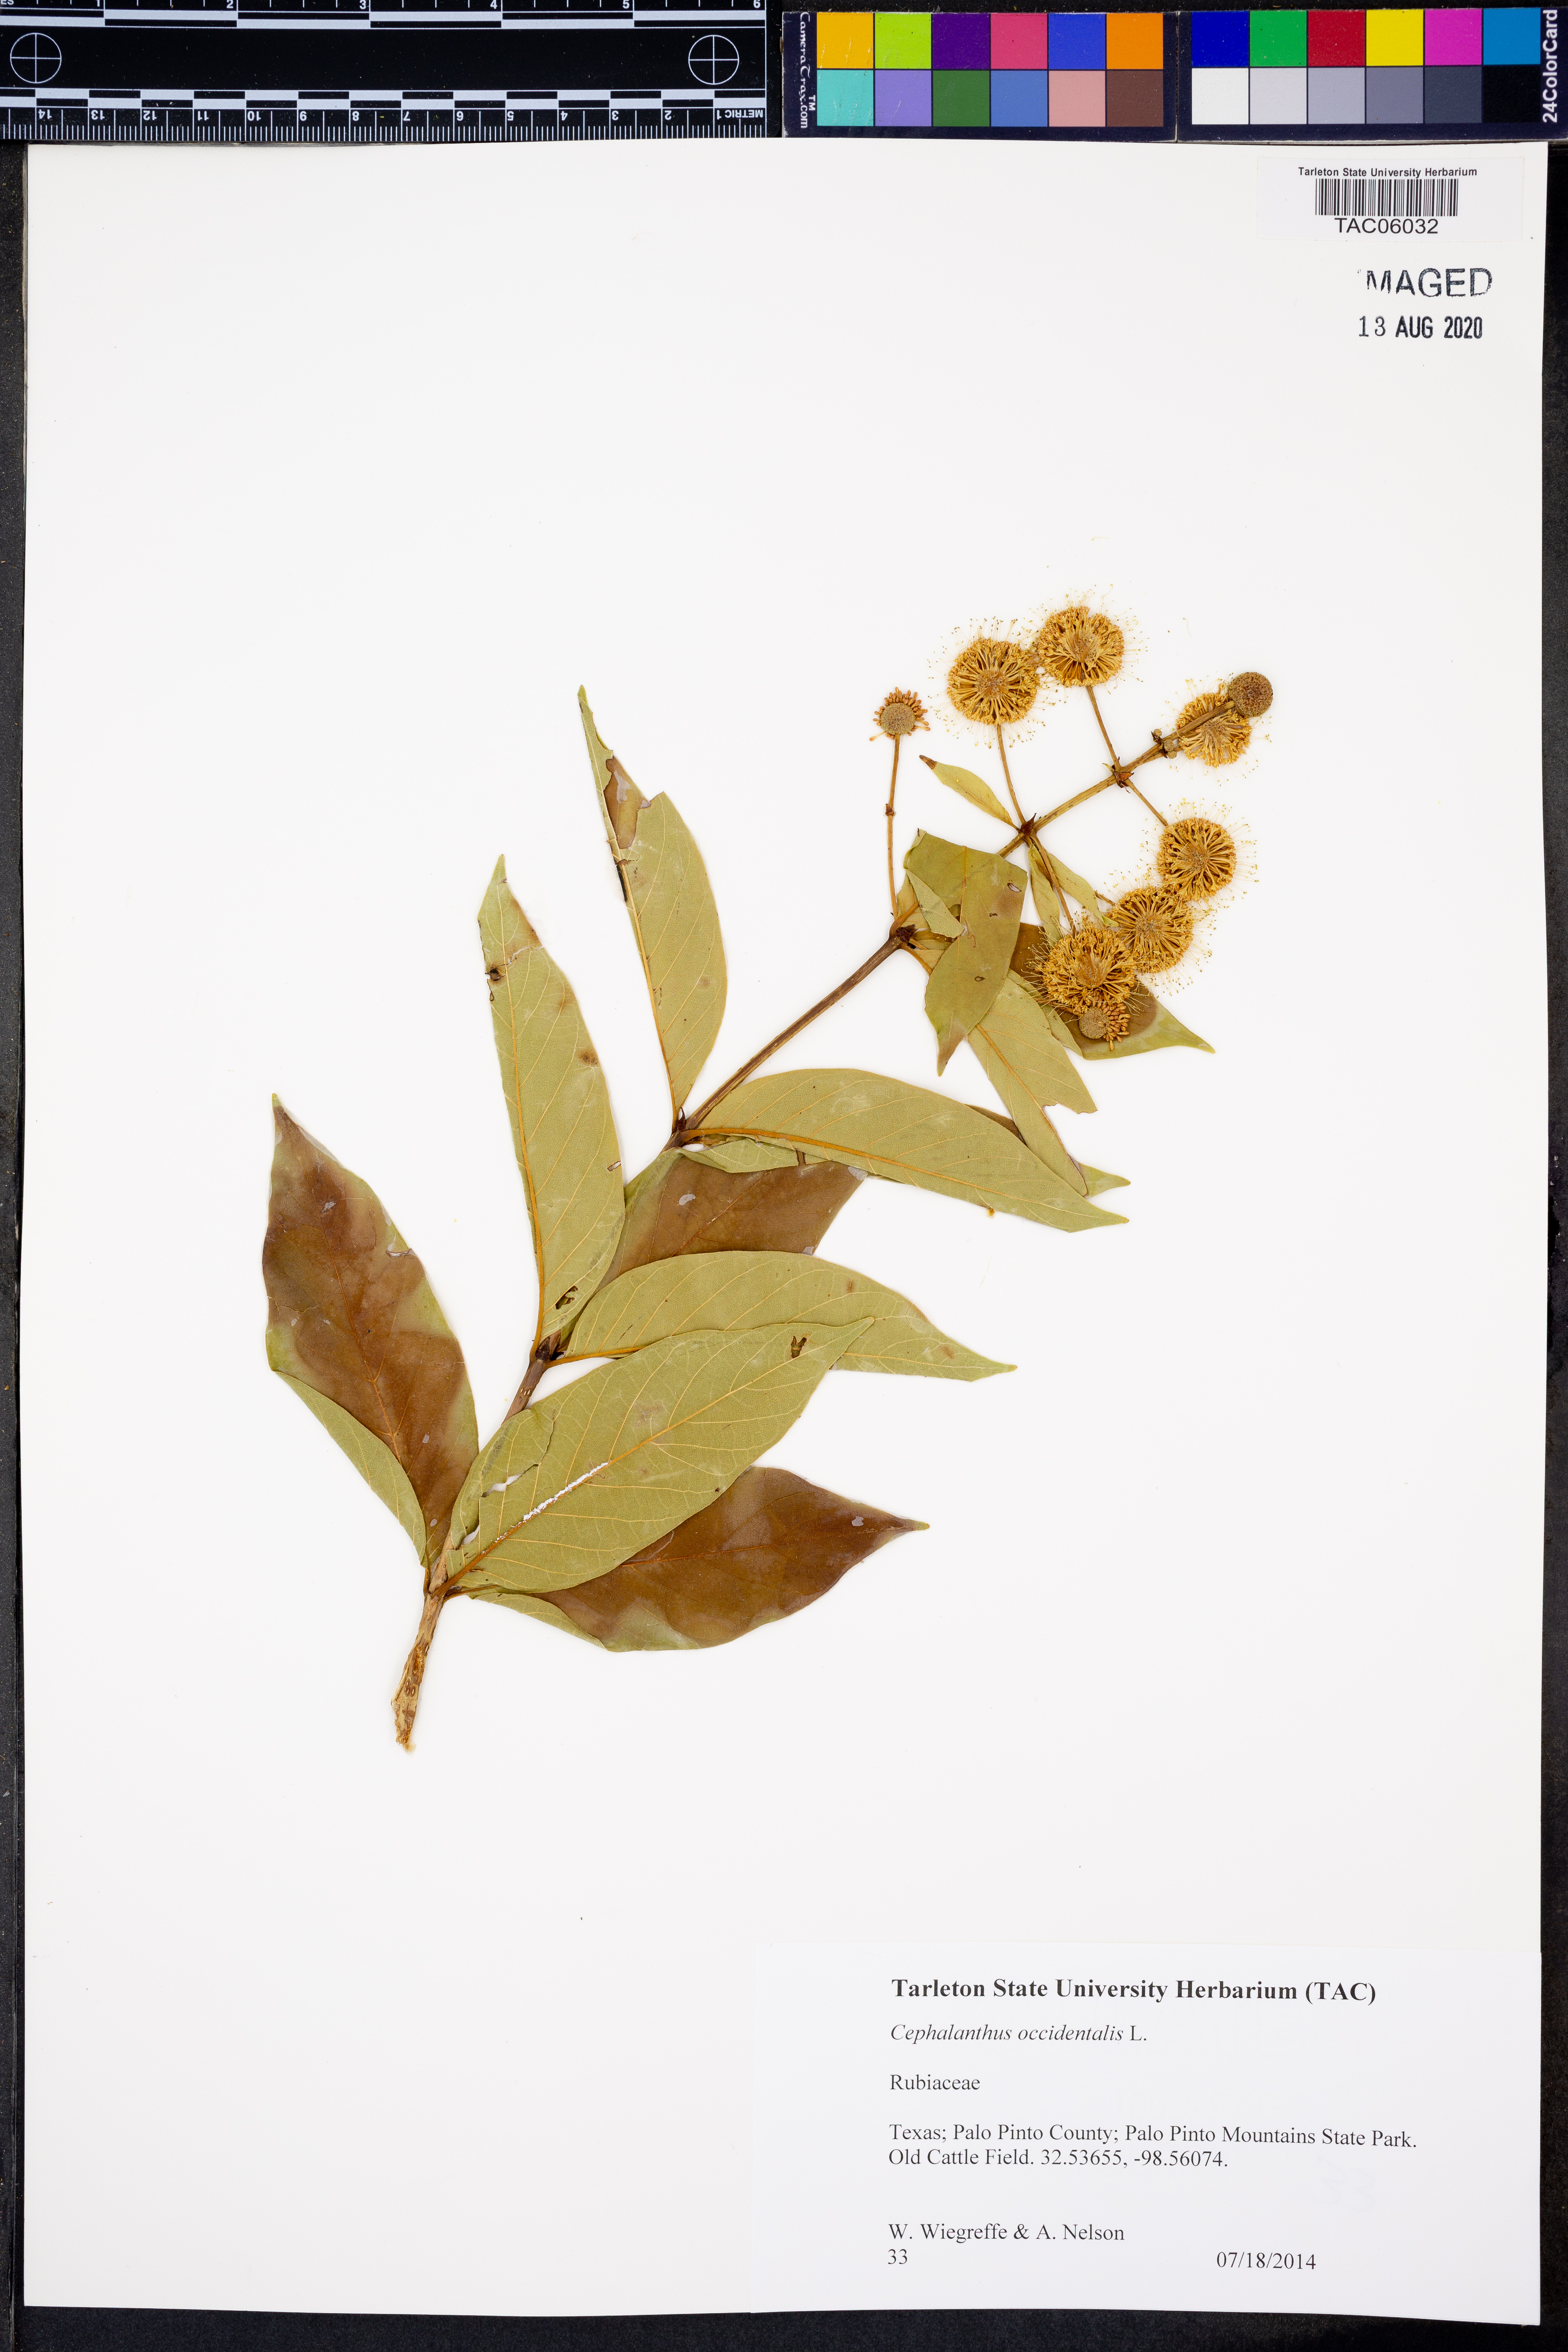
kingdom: Plantae
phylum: Tracheophyta
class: Magnoliopsida
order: Gentianales
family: Rubiaceae
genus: Cephalanthus
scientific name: Cephalanthus occidentalis
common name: Button-willow
